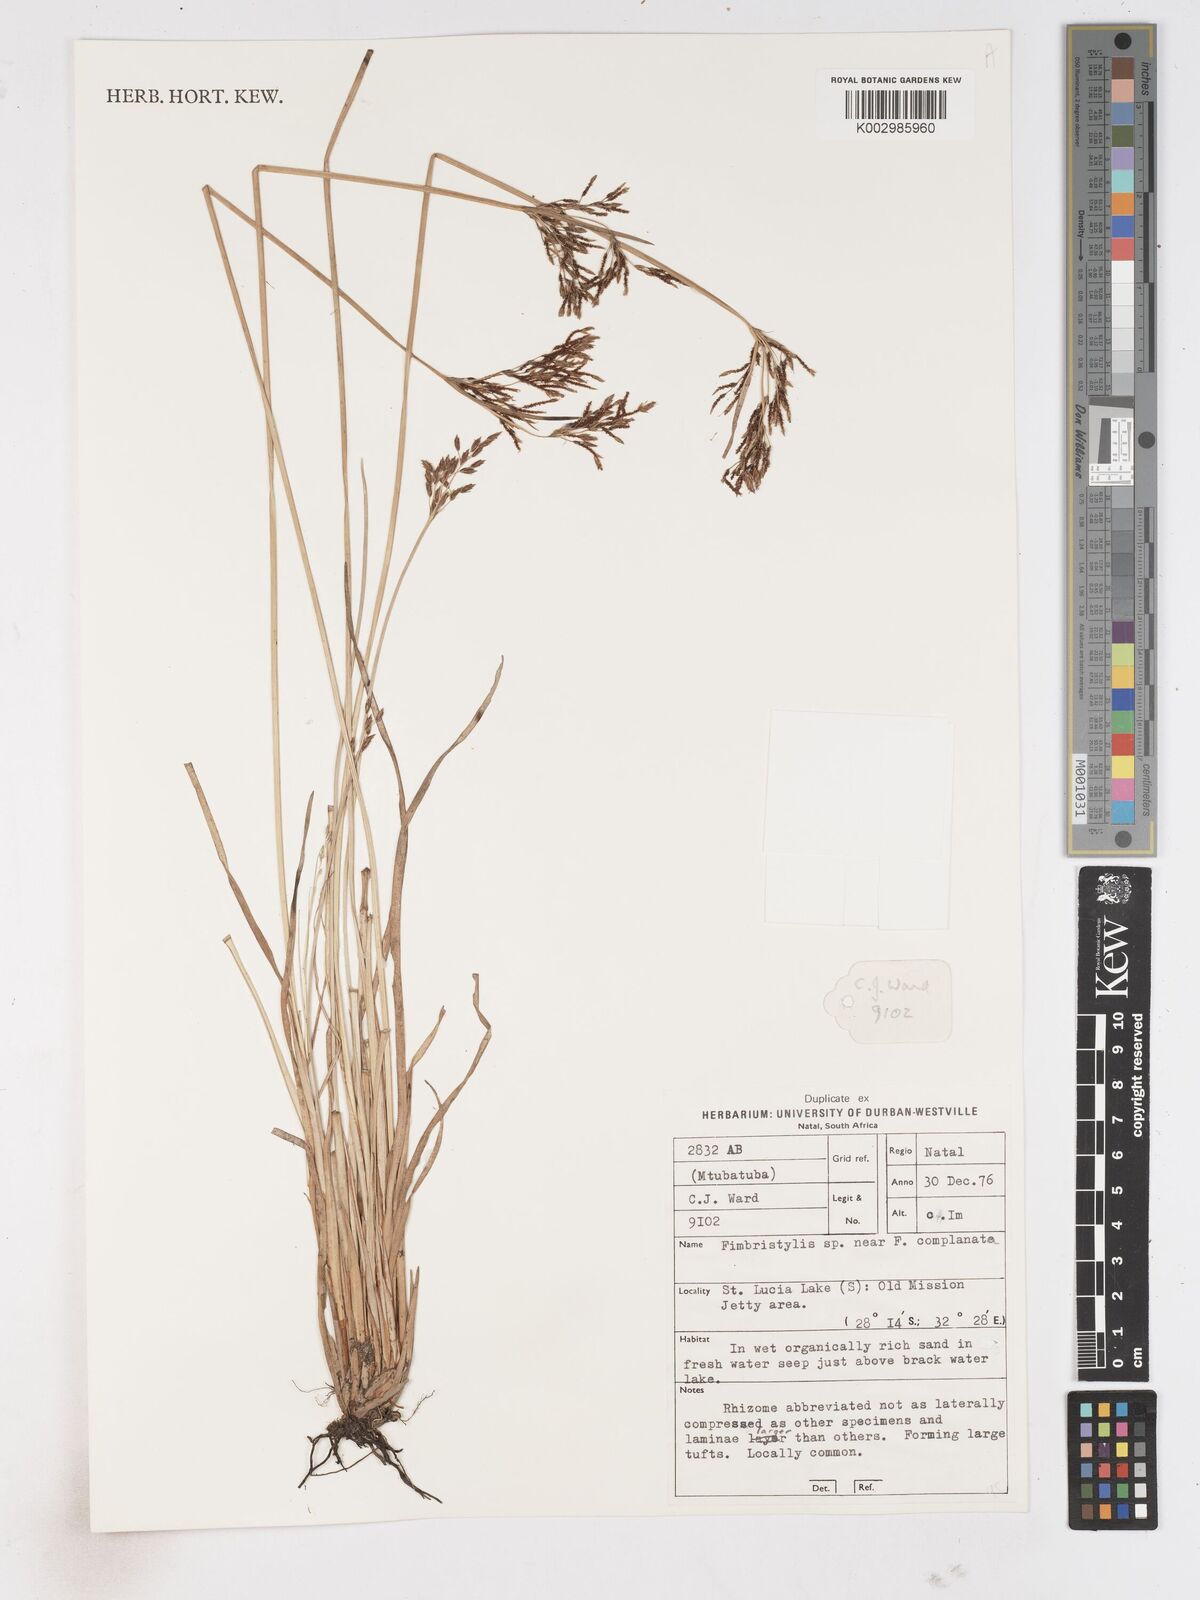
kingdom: Plantae
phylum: Tracheophyta
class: Liliopsida
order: Poales
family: Cyperaceae
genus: Fimbristylis
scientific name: Fimbristylis complanata
